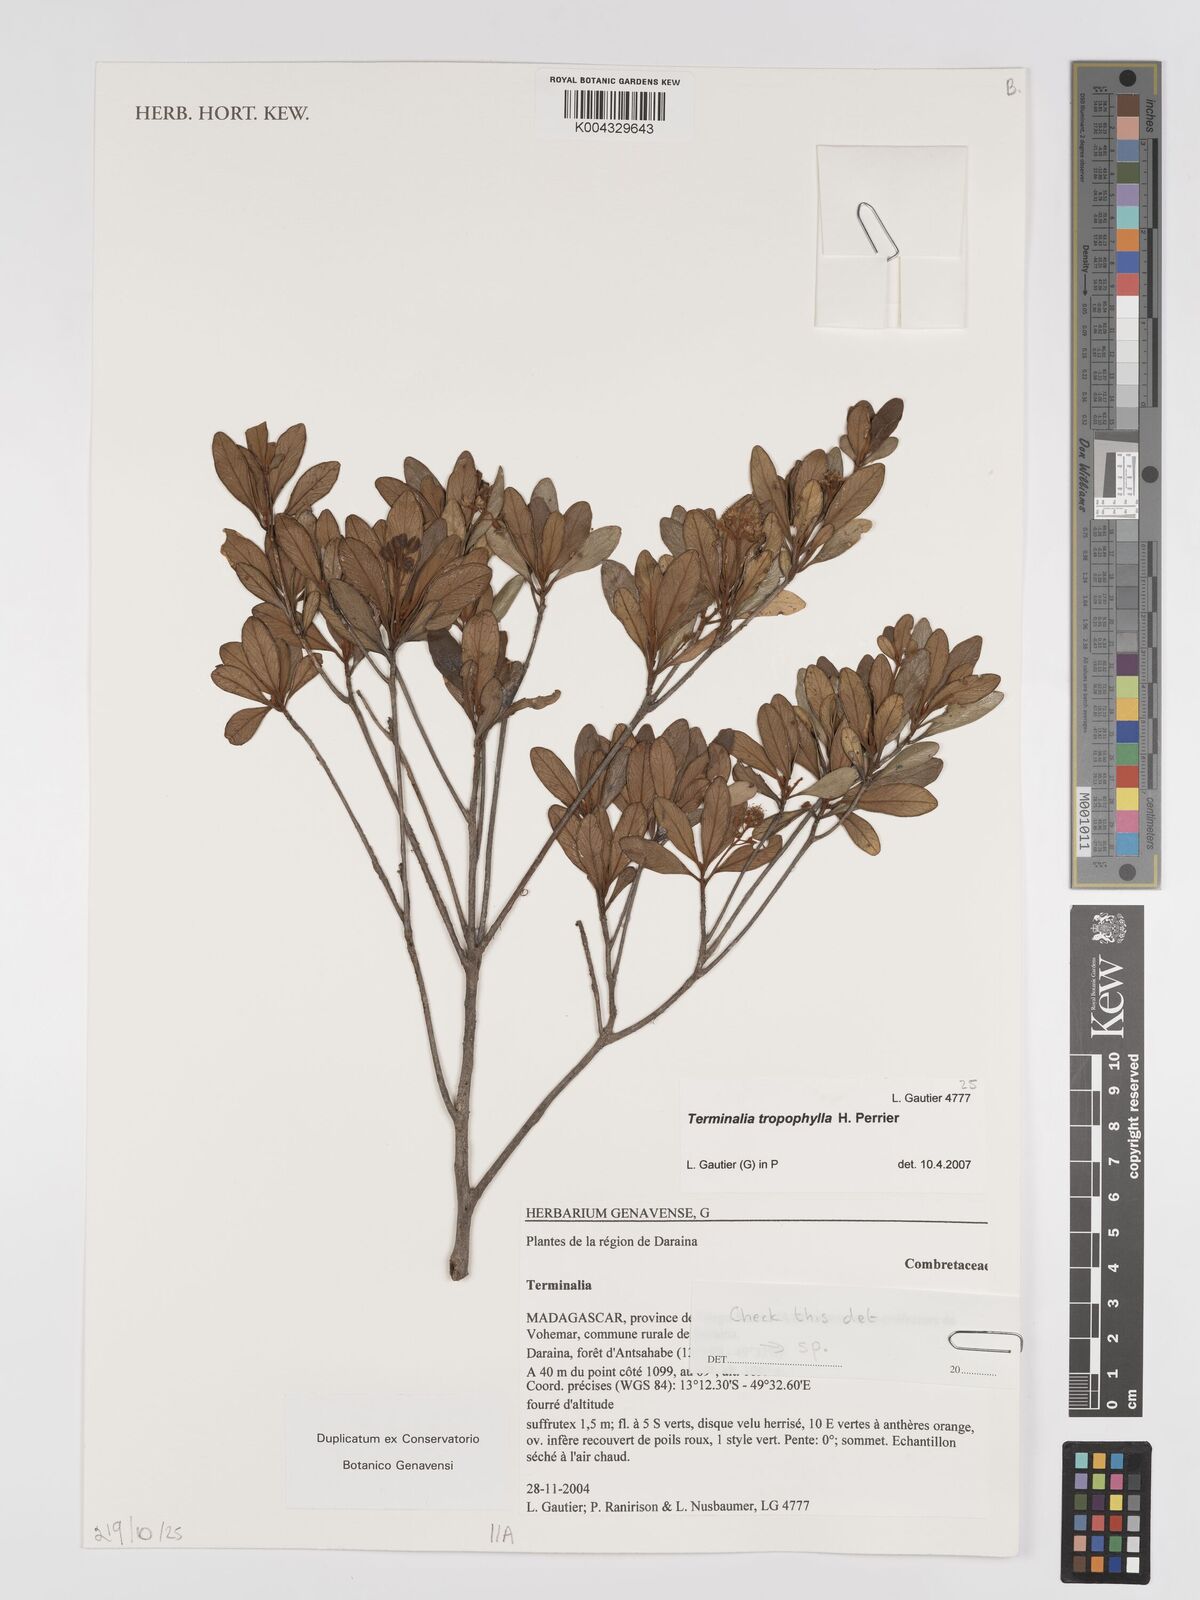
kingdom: Plantae
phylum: Tracheophyta
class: Magnoliopsida
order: Myrtales
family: Combretaceae
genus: Terminalia
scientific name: Terminalia tropophylla
